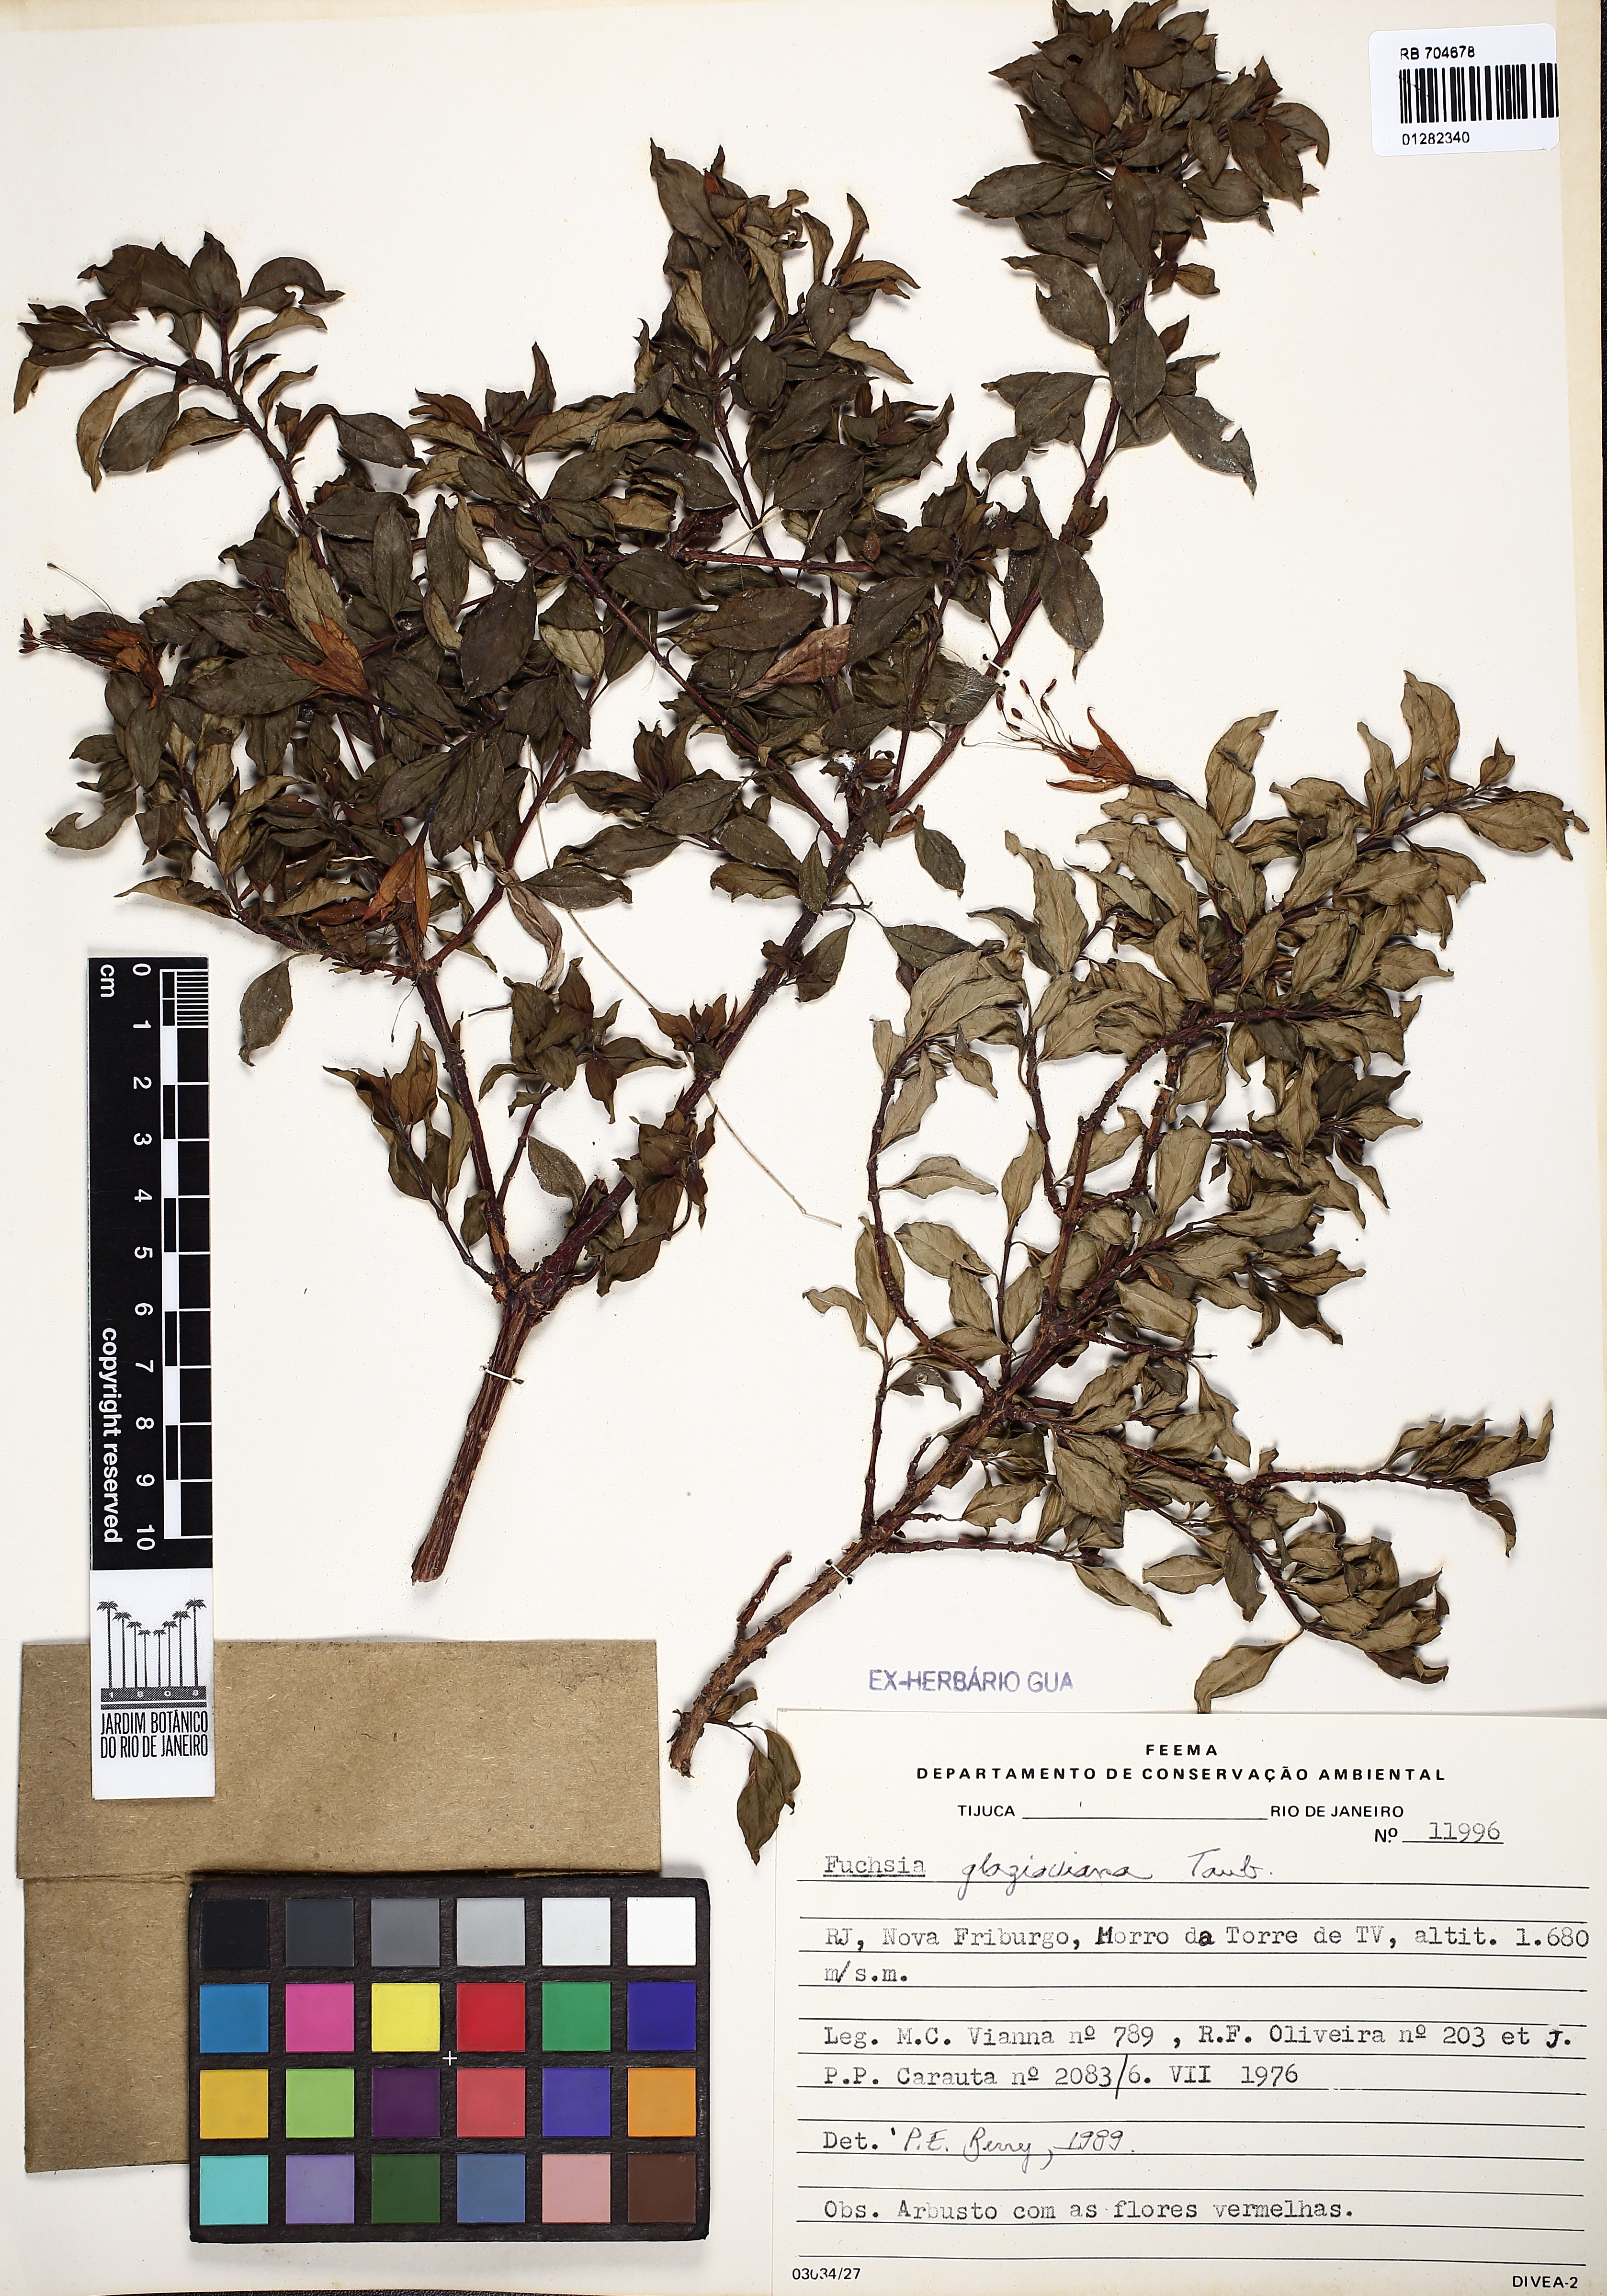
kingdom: Plantae
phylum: Tracheophyta
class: Magnoliopsida
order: Myrtales
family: Onagraceae
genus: Fuchsia
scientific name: Fuchsia glazioviana
